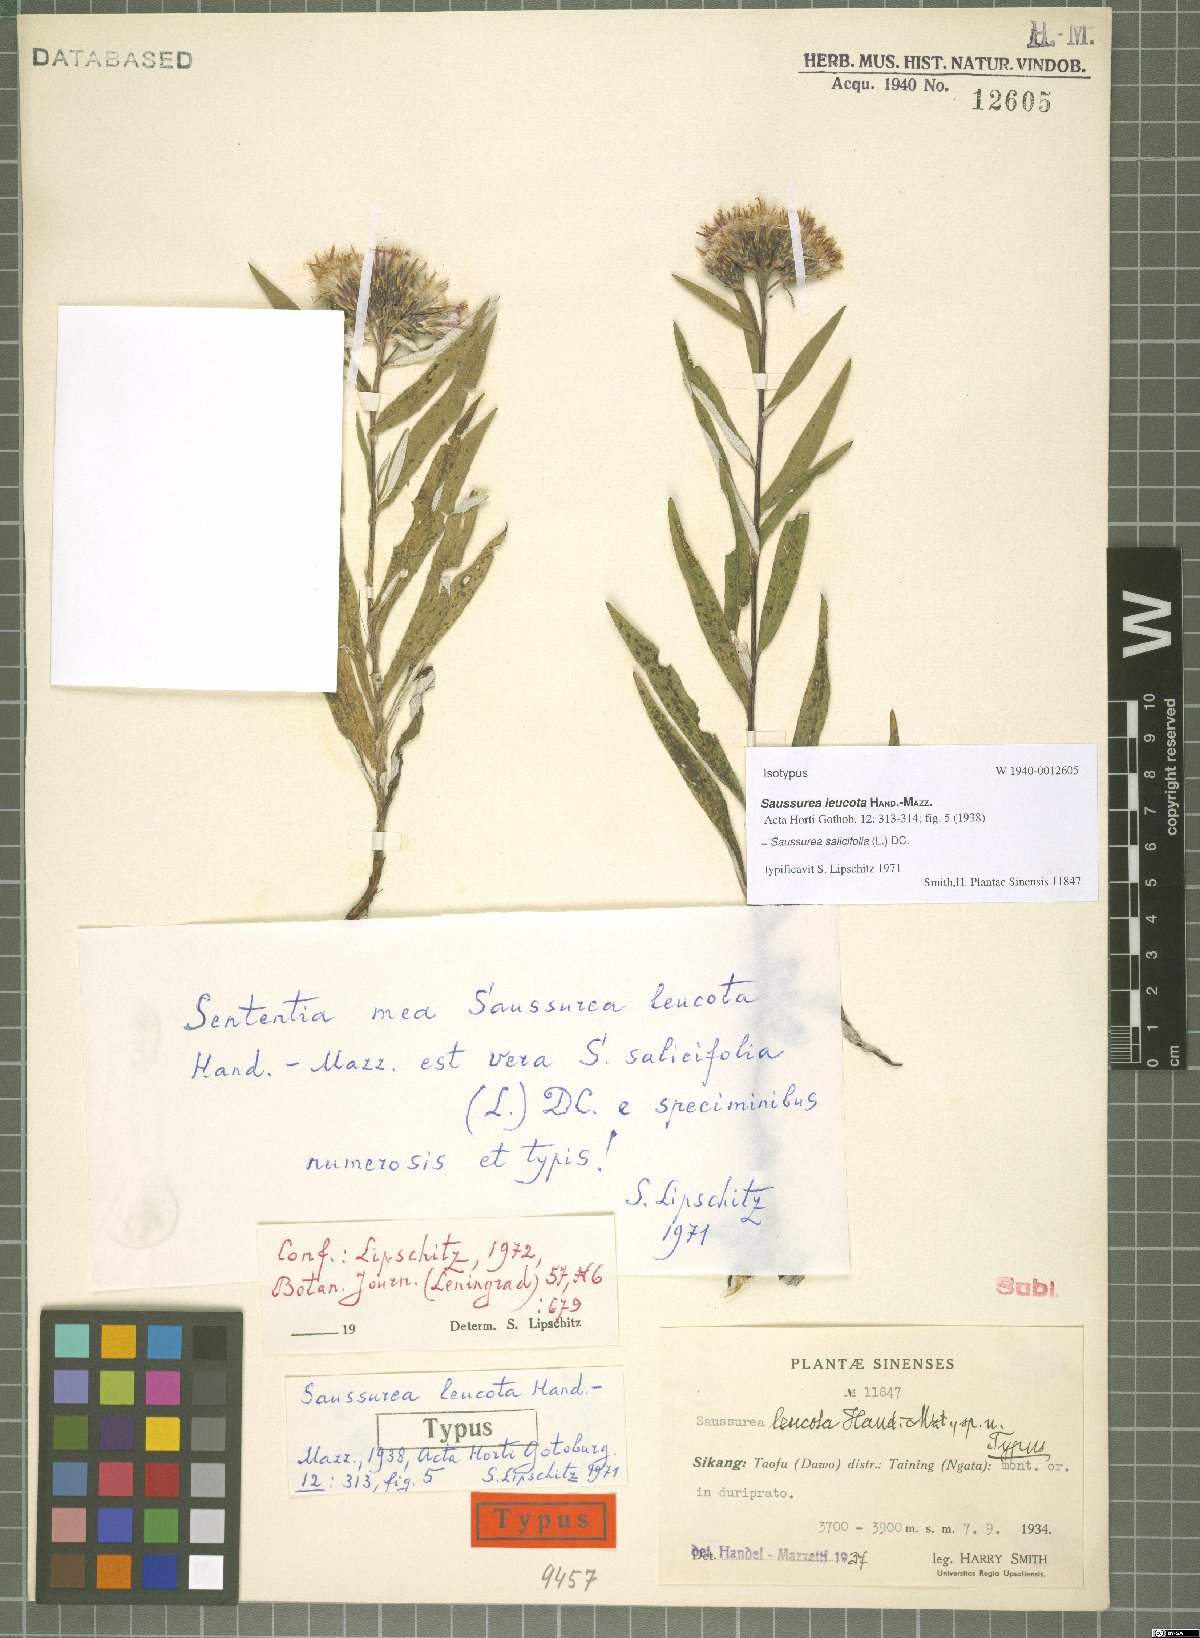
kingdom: Plantae
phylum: Tracheophyta
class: Magnoliopsida
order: Asterales
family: Asteraceae
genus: Saussurea
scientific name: Saussurea salicifolia
